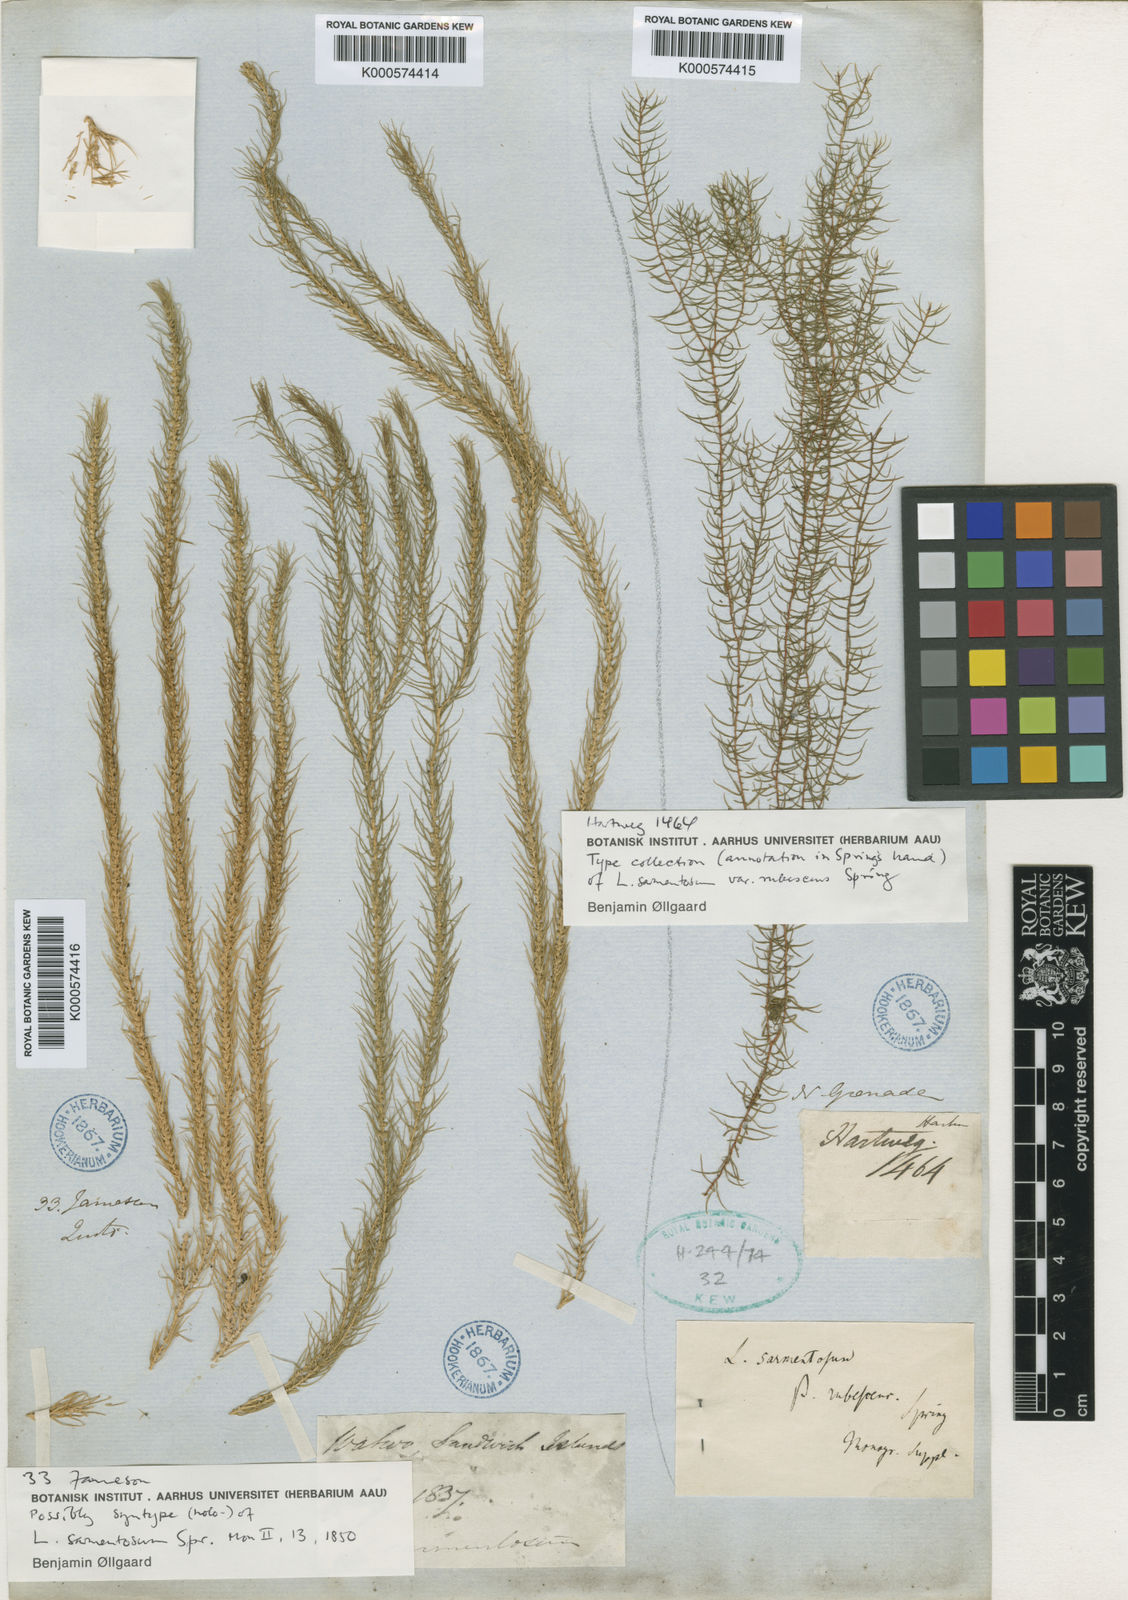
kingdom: Plantae
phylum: Tracheophyta
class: Lycopodiopsida
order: Lycopodiales
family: Lycopodiaceae
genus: Phlegmariurus
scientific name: Phlegmariurus sarmentosus
